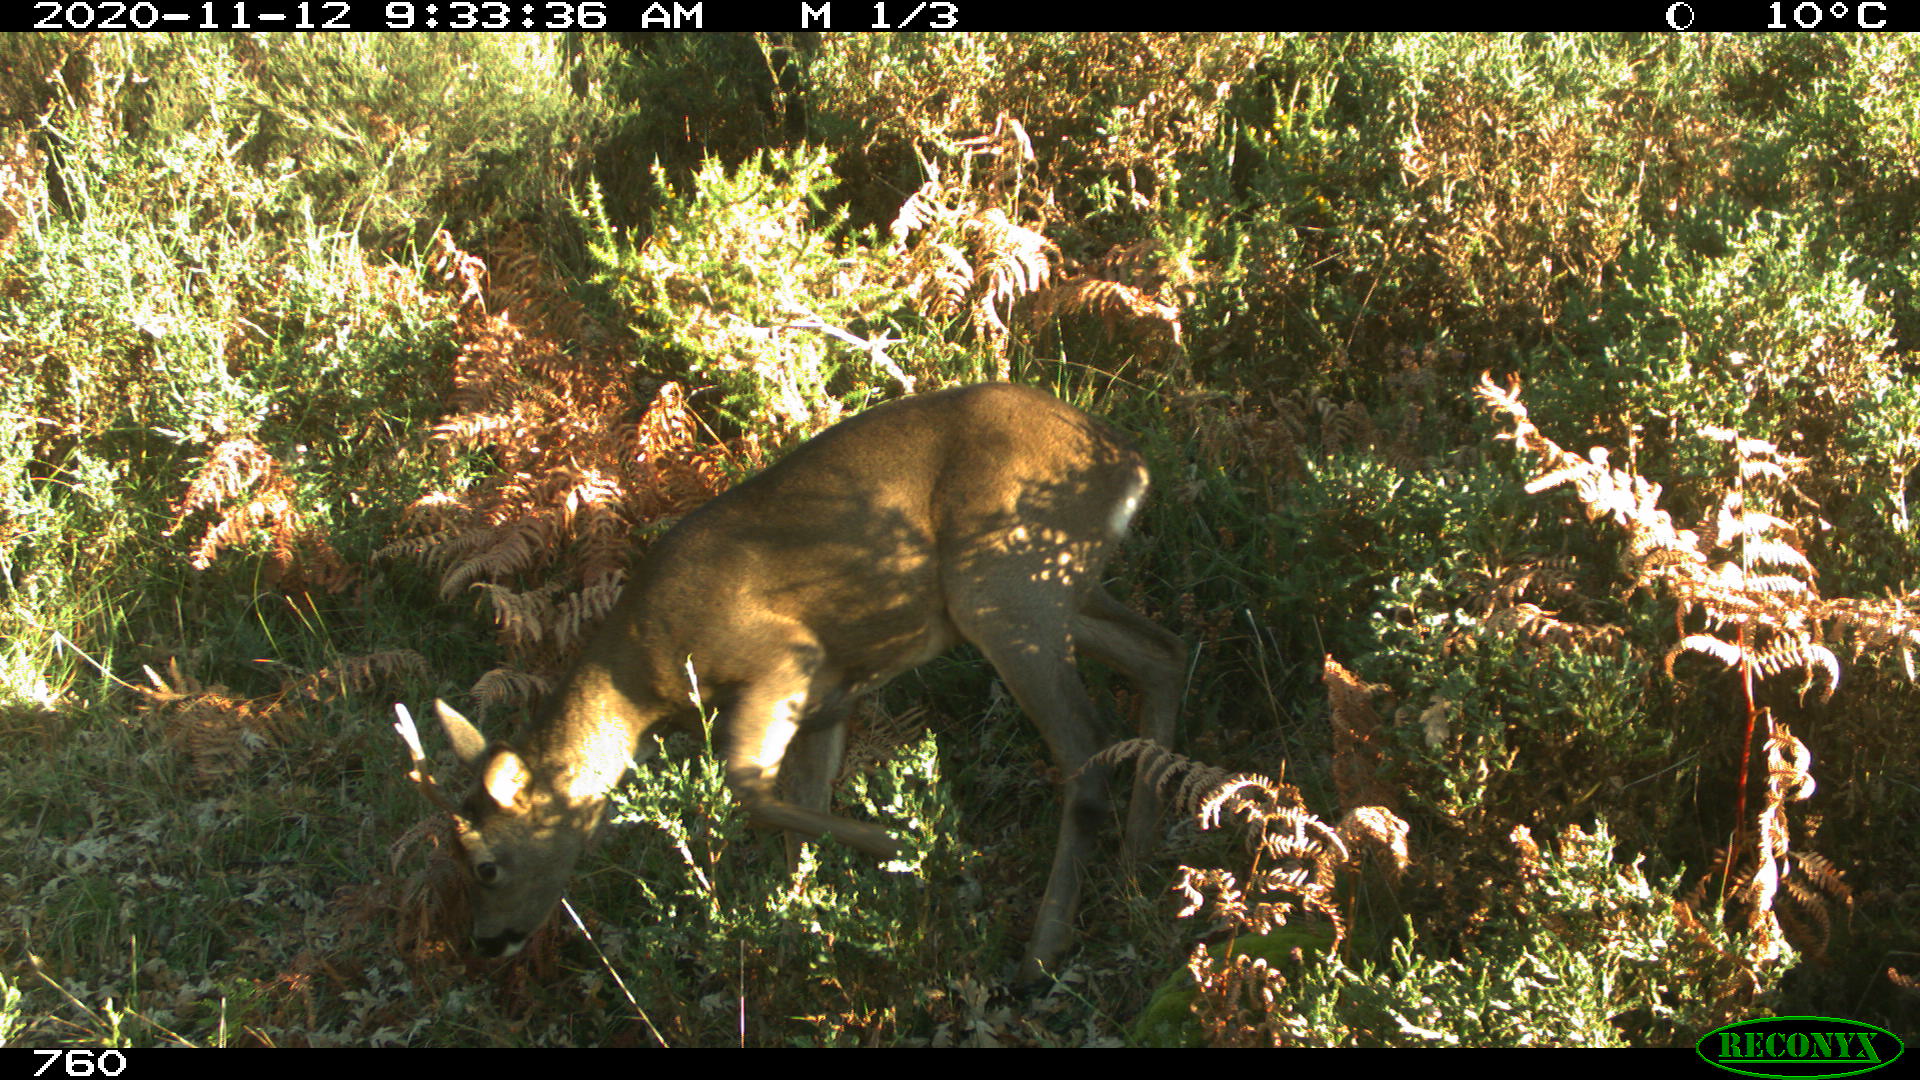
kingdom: Animalia
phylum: Chordata
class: Mammalia
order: Artiodactyla
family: Cervidae
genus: Capreolus
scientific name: Capreolus capreolus
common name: Western roe deer
